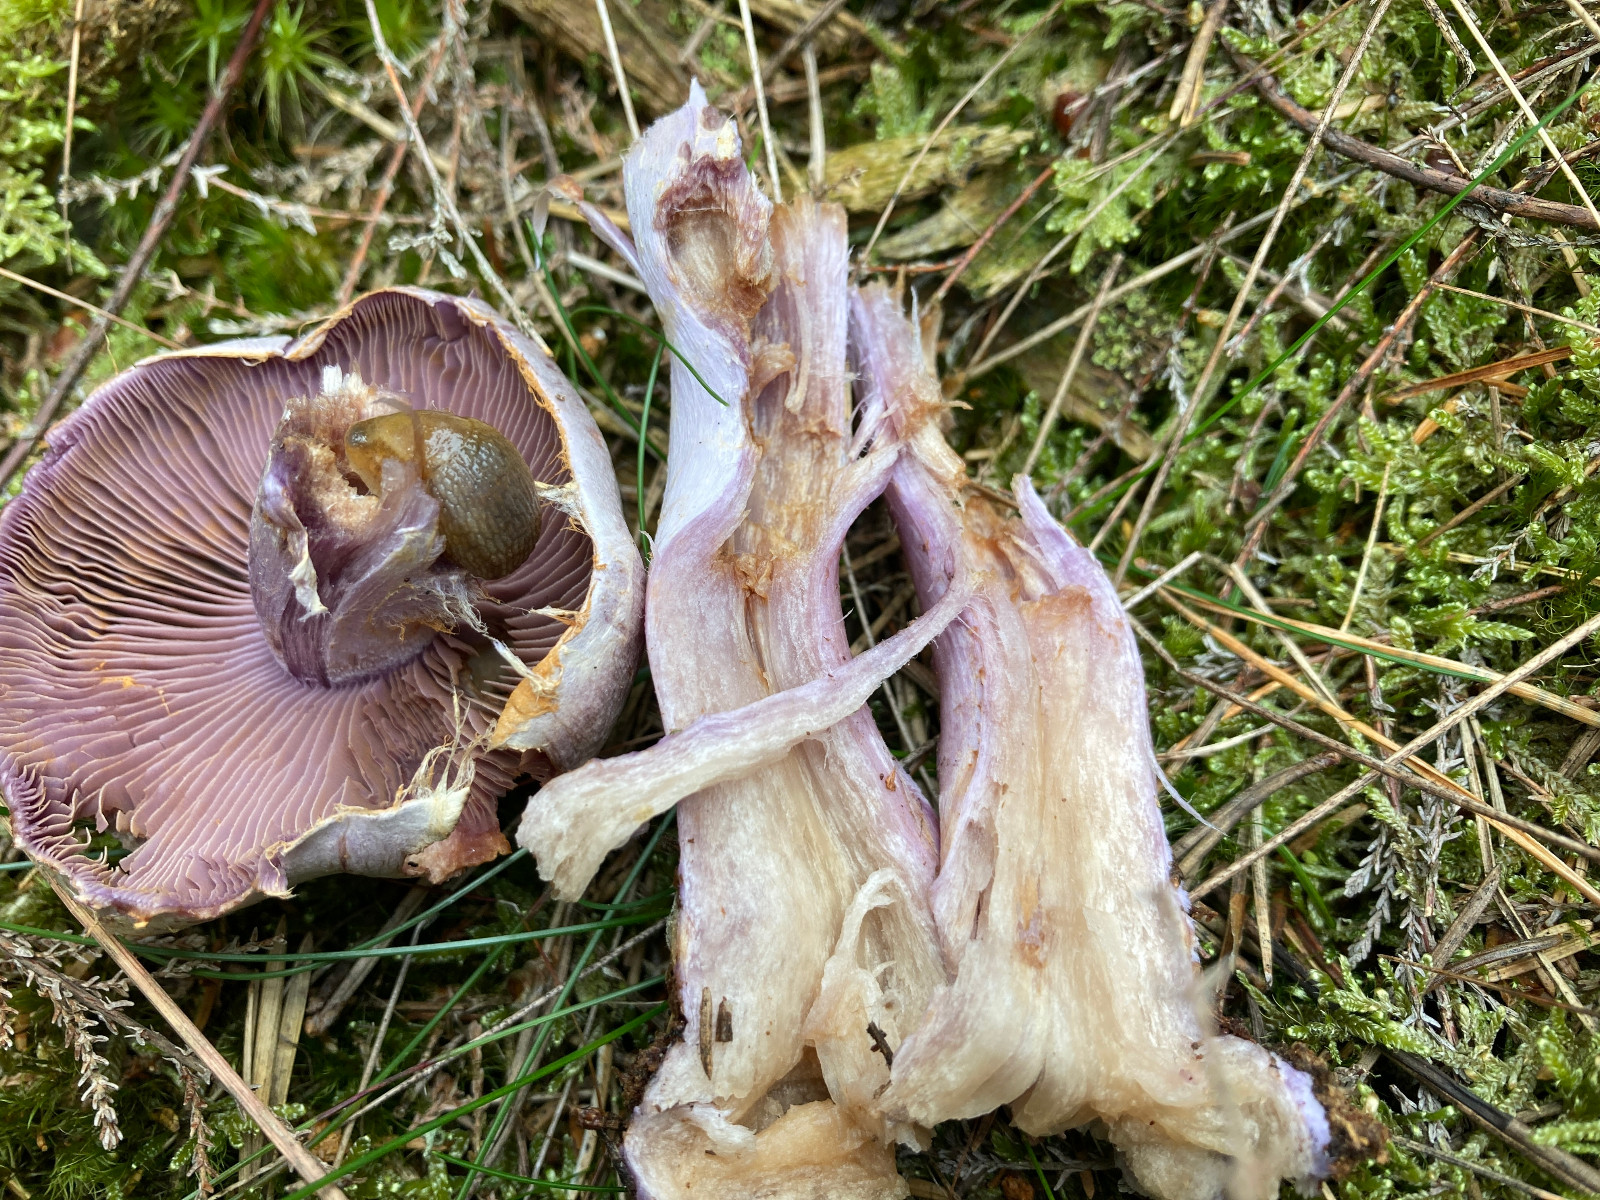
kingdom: Fungi
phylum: Basidiomycota
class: Agaricomycetes
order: Agaricales
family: Cortinariaceae
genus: Cortinarius
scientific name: Cortinarius camphoratus
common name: stinkende slørhat
